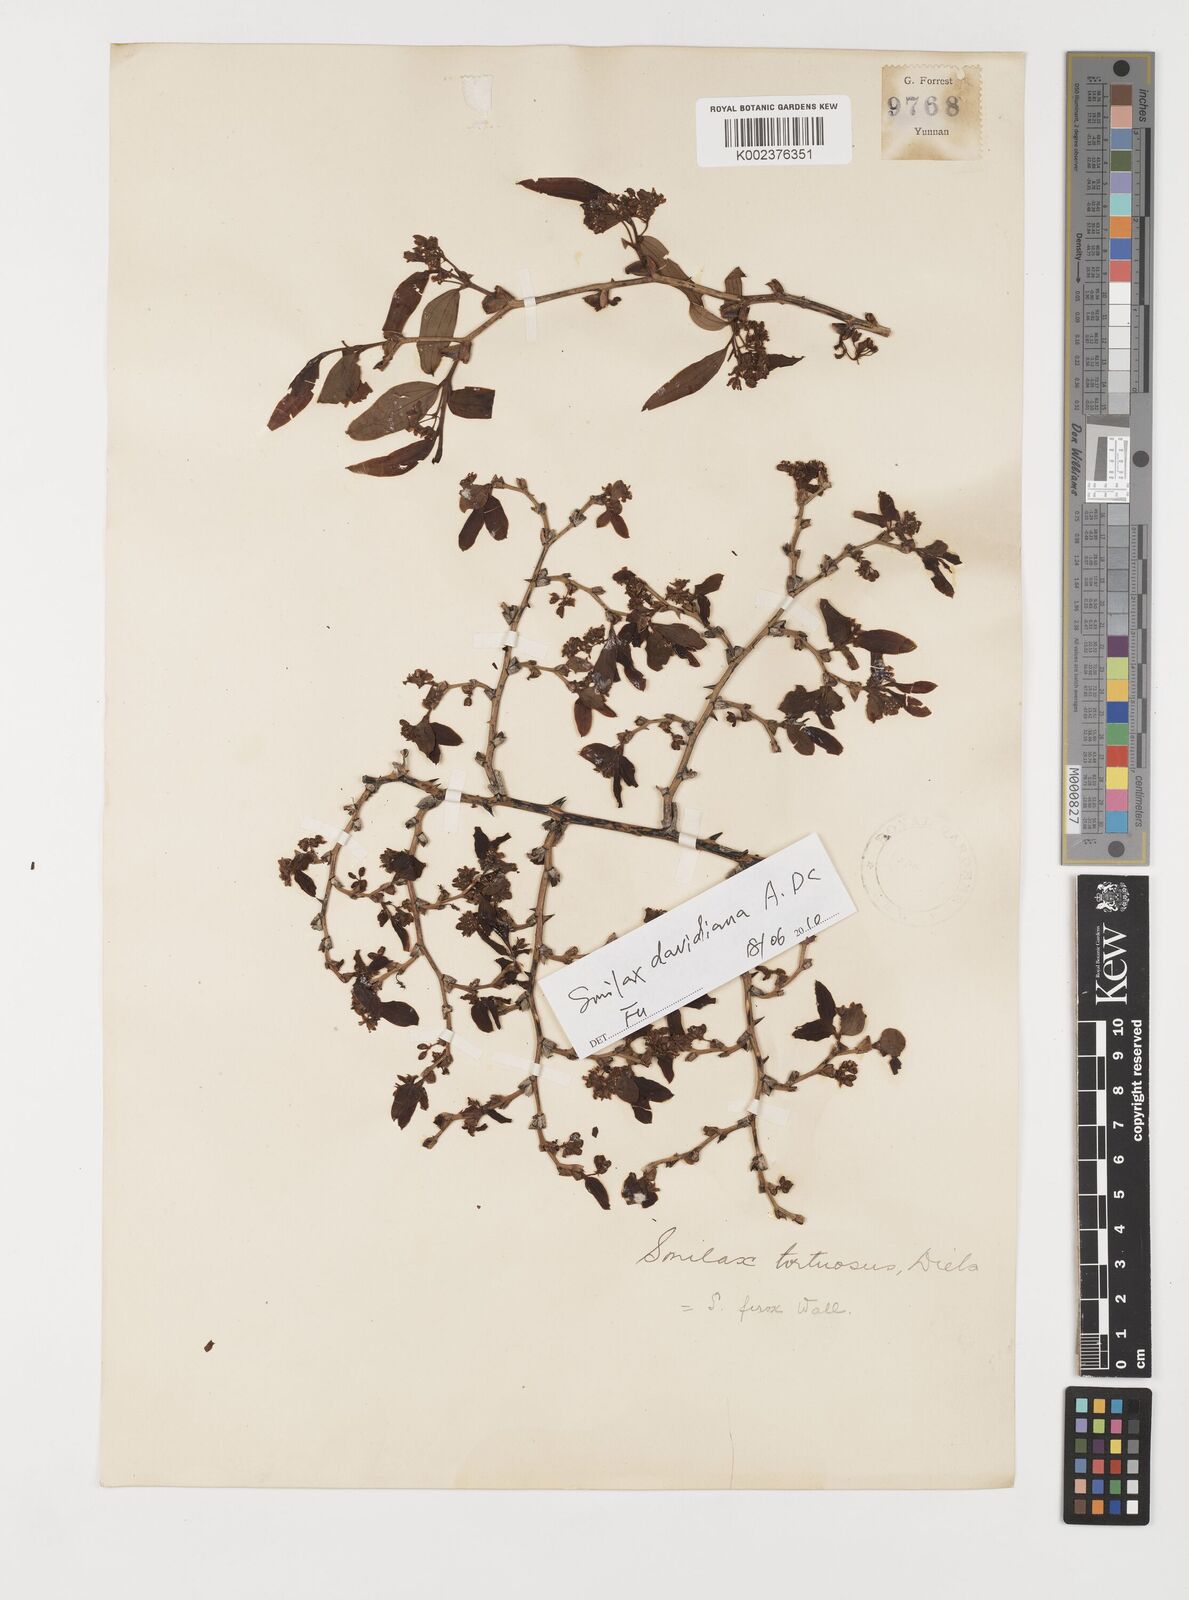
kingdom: Plantae
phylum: Tracheophyta
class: Liliopsida
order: Liliales
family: Smilacaceae
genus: Smilax
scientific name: Smilax megalantha
